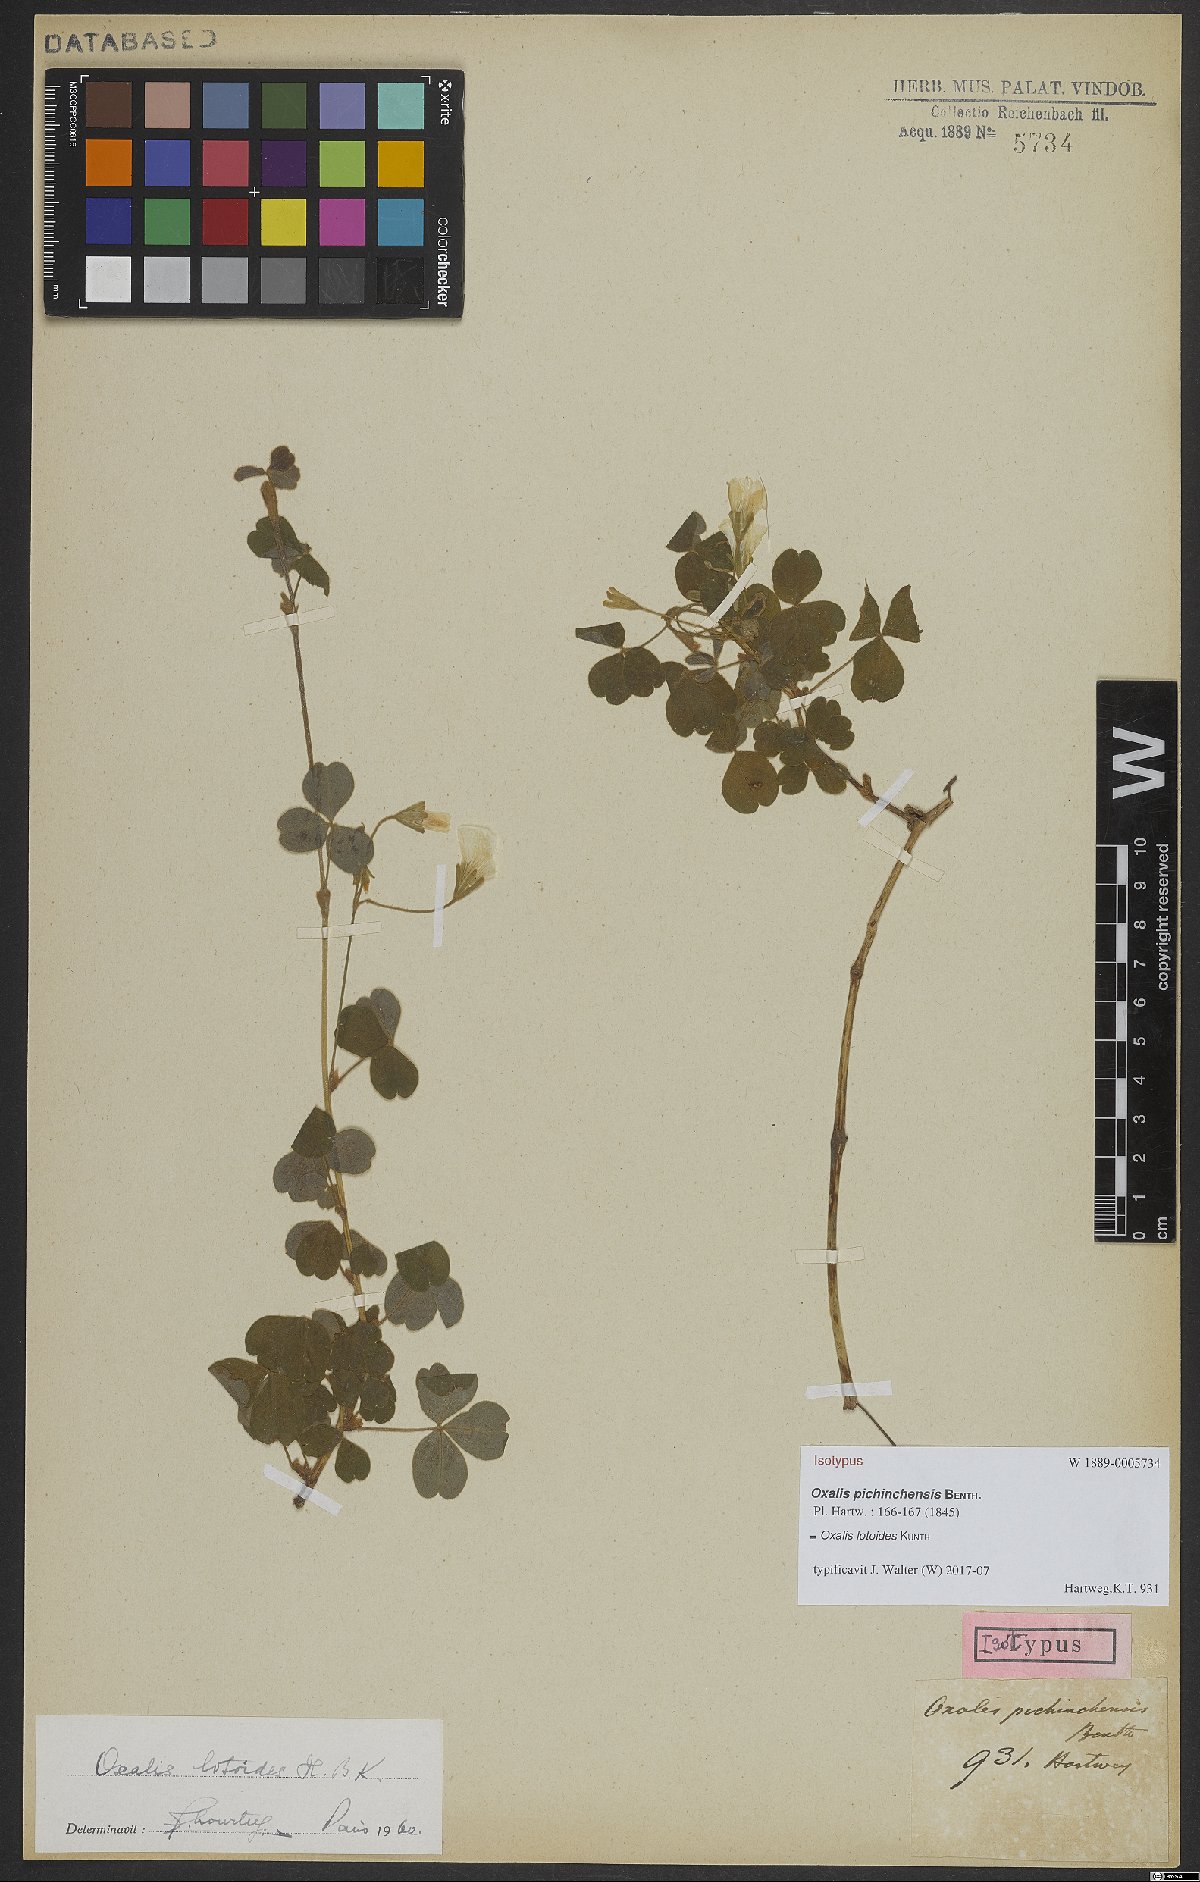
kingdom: Plantae
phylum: Tracheophyta
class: Magnoliopsida
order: Oxalidales
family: Oxalidaceae
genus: Oxalis
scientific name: Oxalis lotoides
